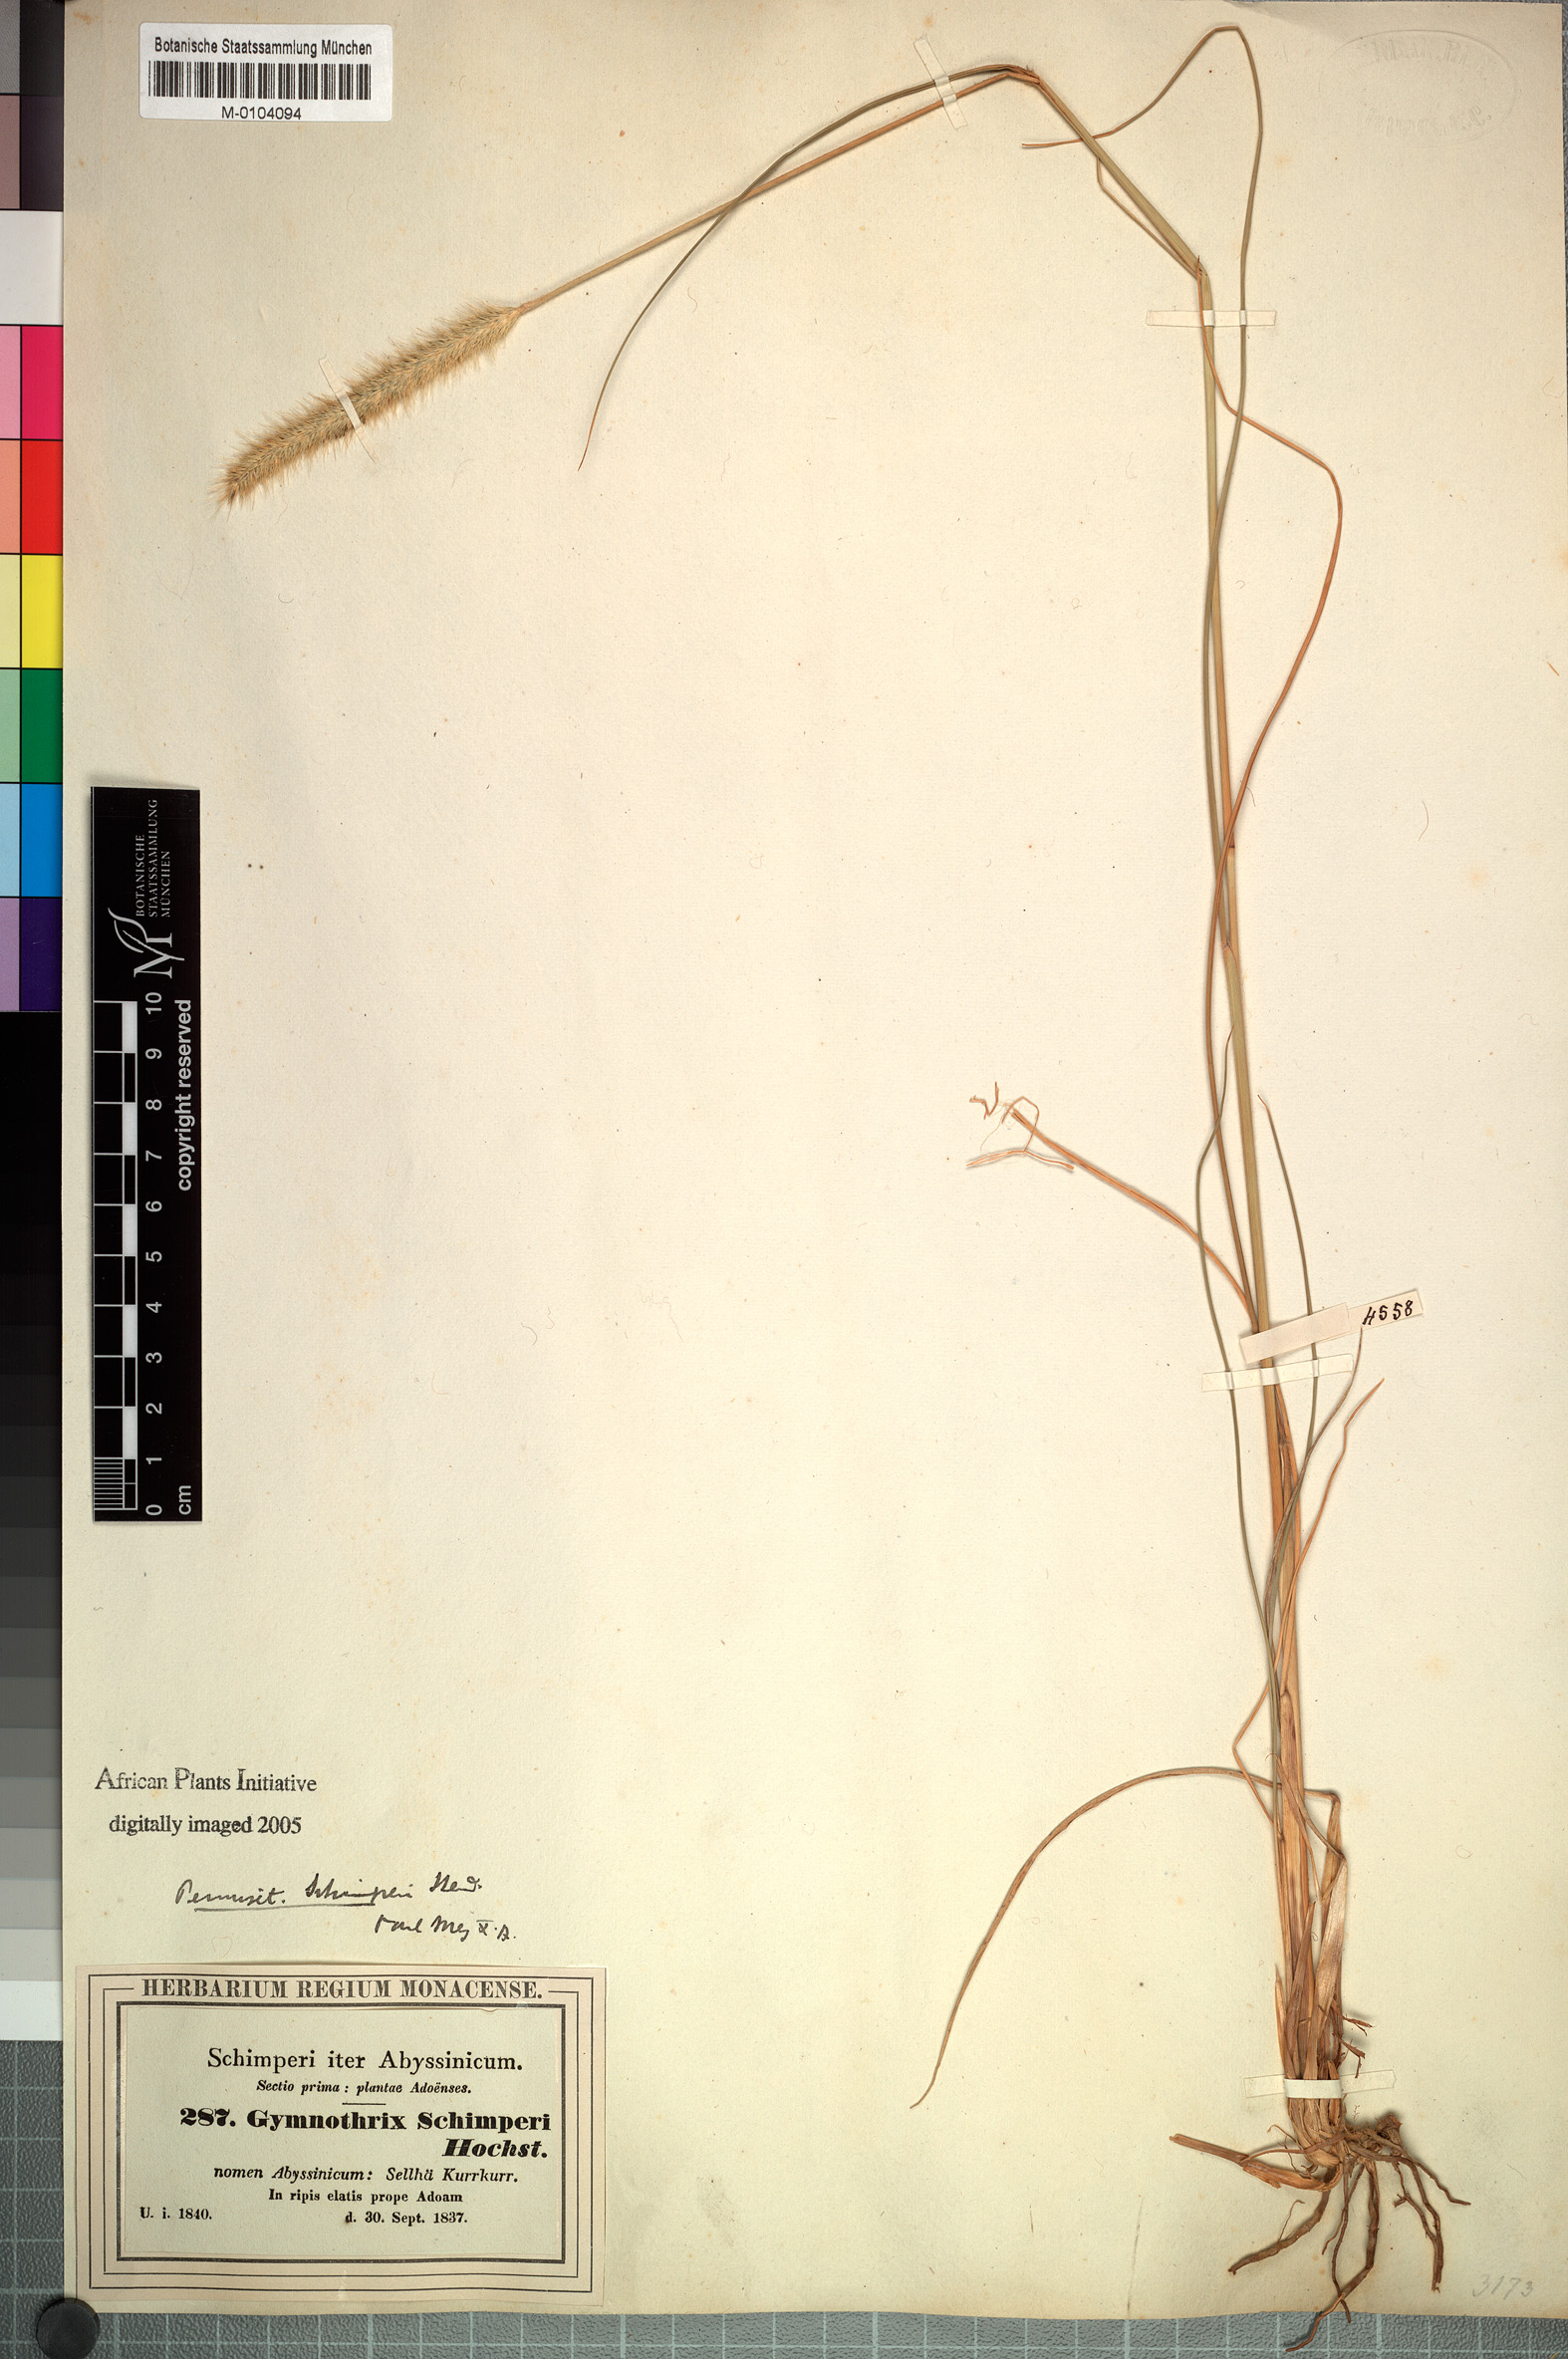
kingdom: Plantae
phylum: Tracheophyta
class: Liliopsida
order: Poales
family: Poaceae
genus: Cenchrus
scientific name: Cenchrus sphacelatus
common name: Bulgras
